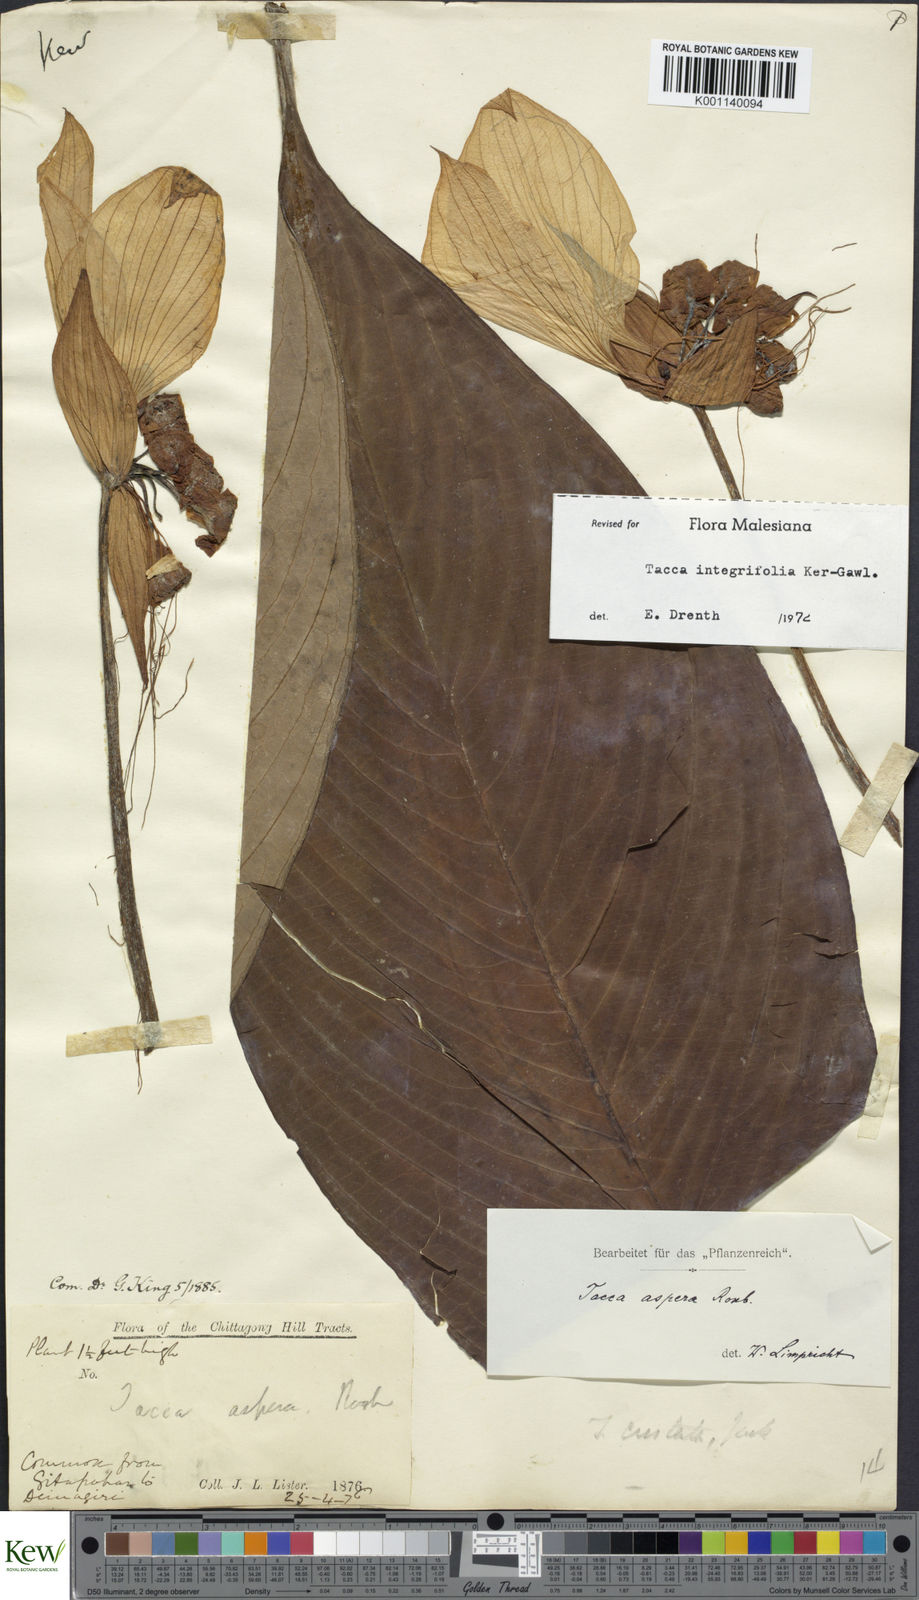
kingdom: Plantae
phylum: Tracheophyta
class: Liliopsida
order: Dioscoreales
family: Dioscoreaceae
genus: Tacca
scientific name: Tacca integrifolia
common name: Batplant
